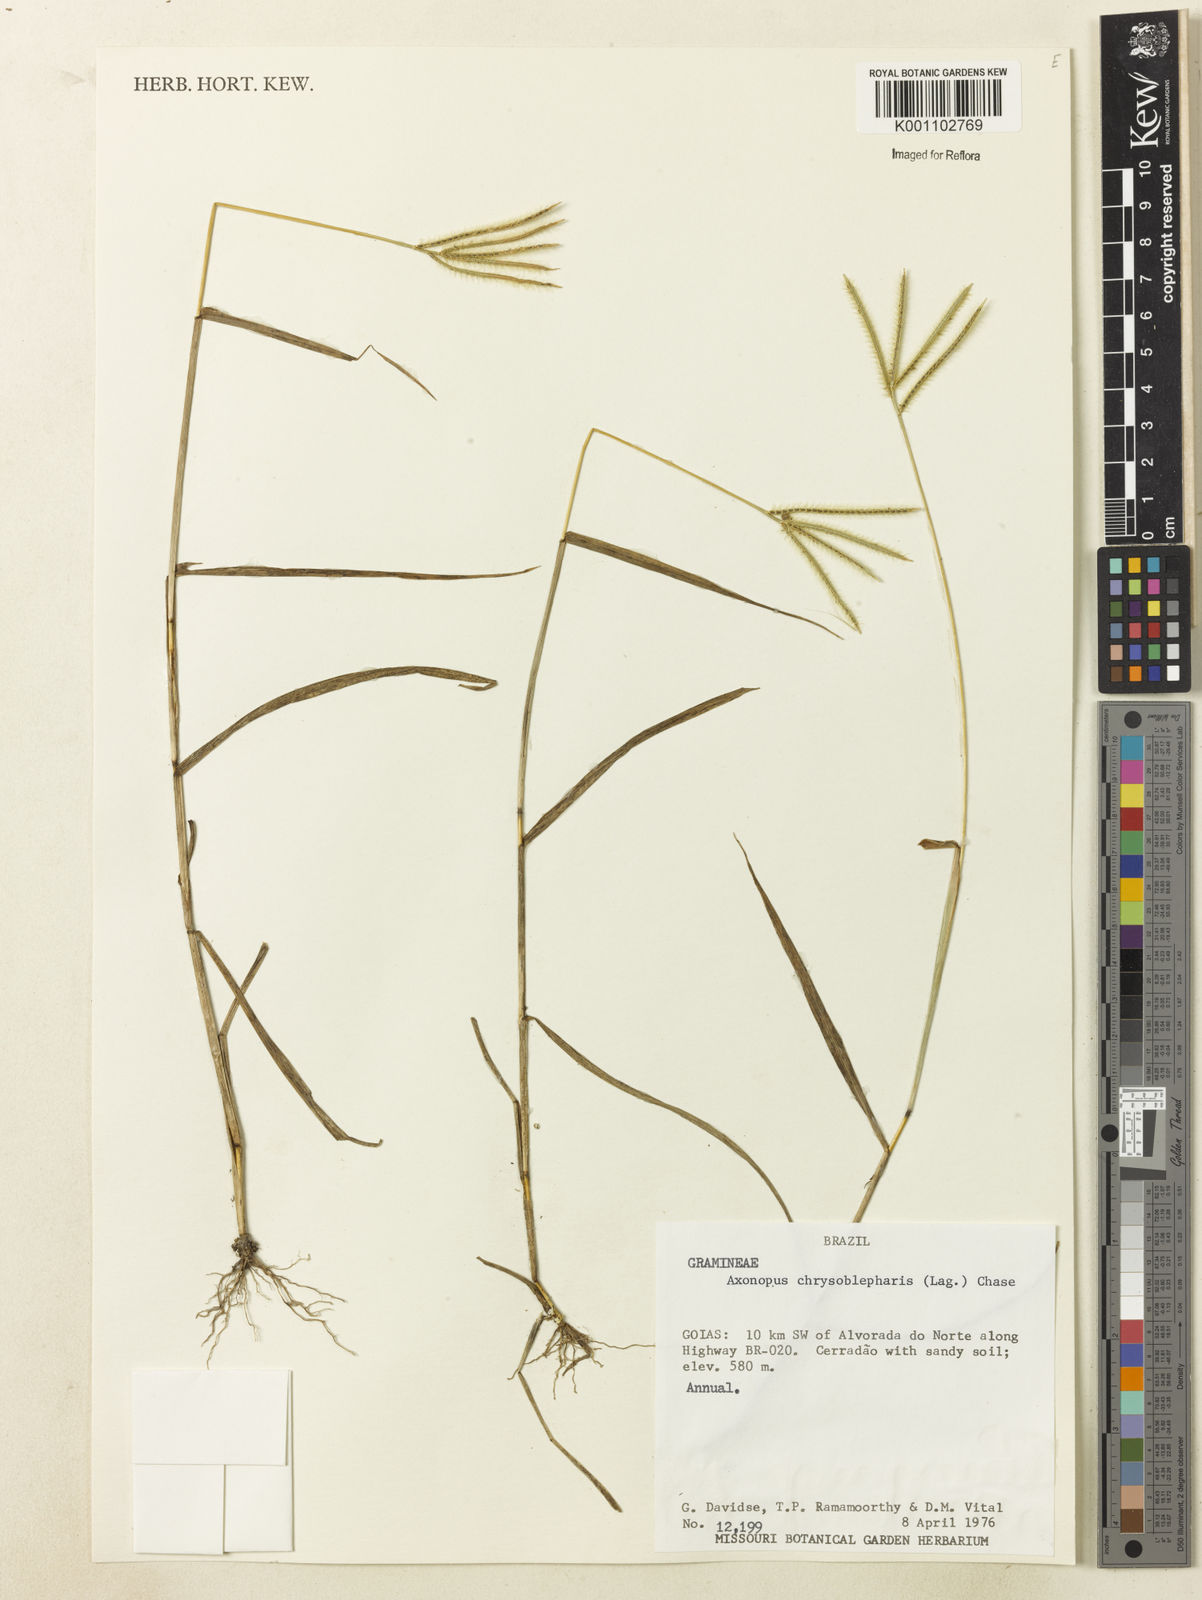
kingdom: Plantae
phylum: Tracheophyta
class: Liliopsida
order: Poales
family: Poaceae
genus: Axonopus
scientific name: Axonopus aureus
